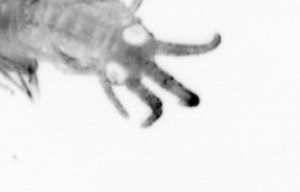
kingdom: Animalia
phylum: Annelida
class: Polychaeta
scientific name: Polychaeta
